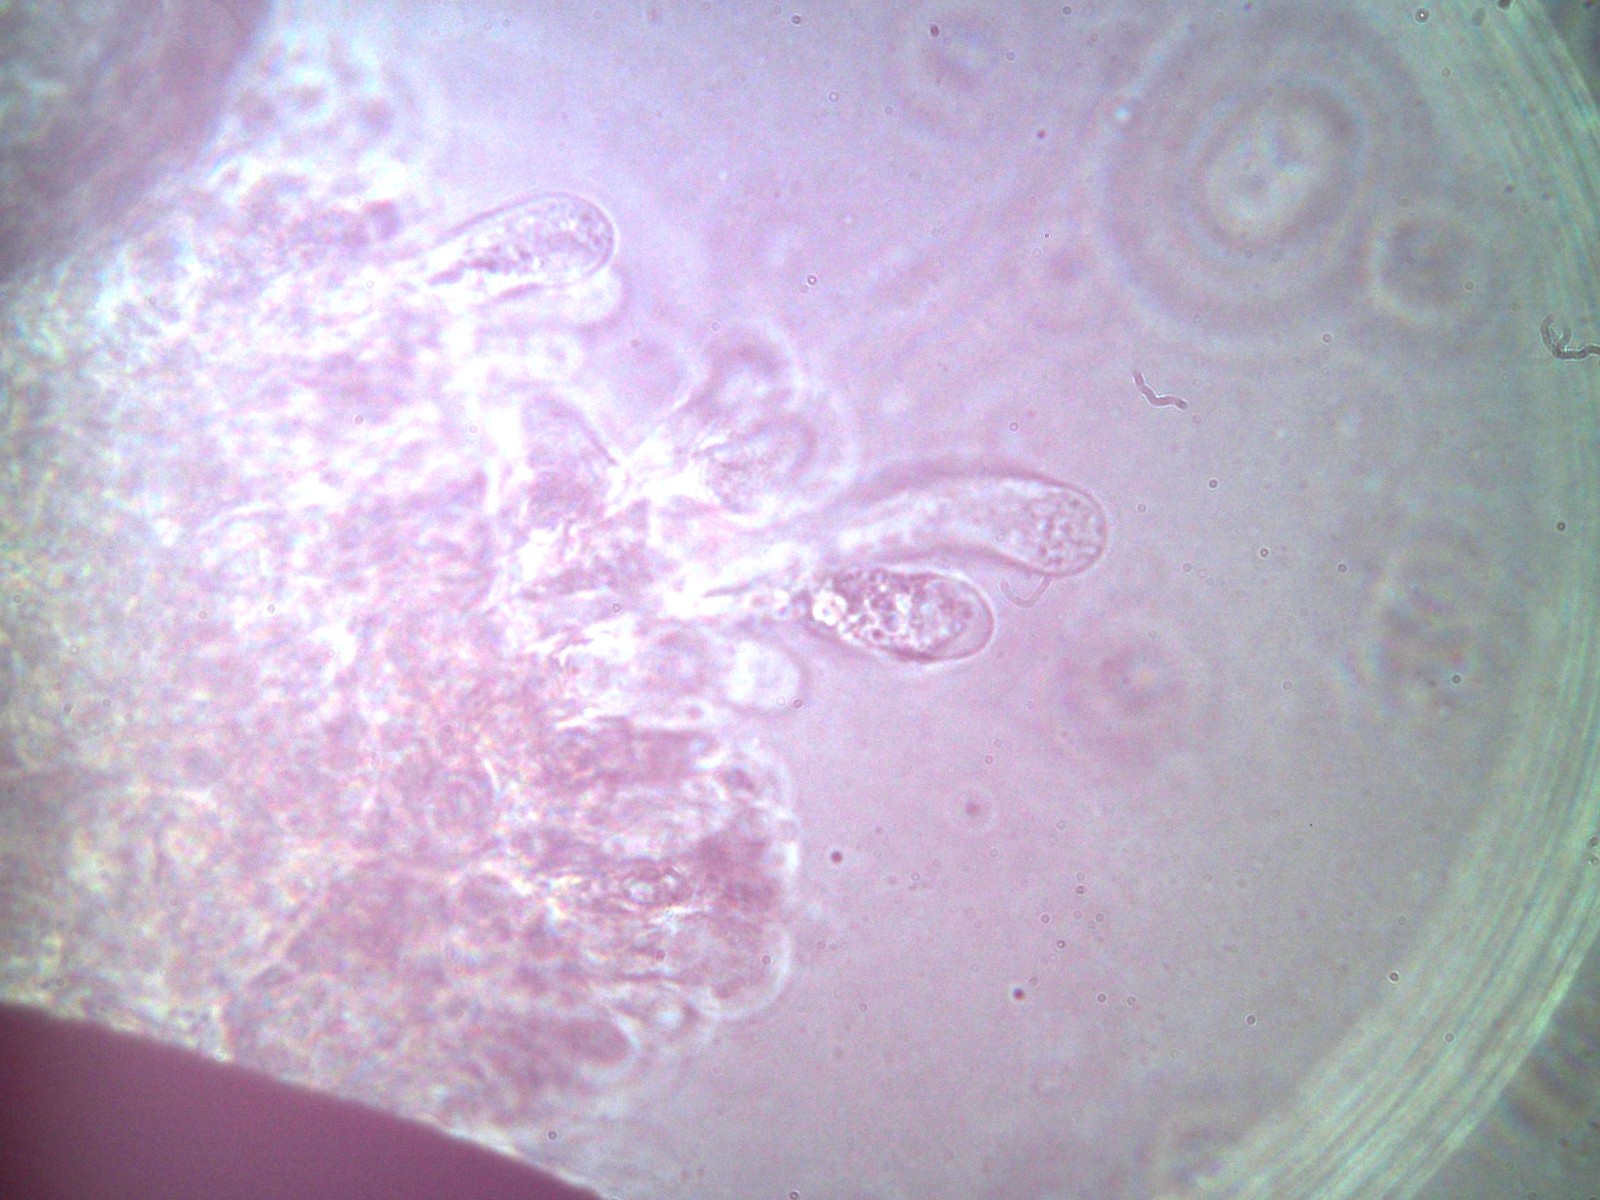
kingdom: Fungi
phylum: Basidiomycota
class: Agaricomycetes
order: Agaricales
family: Tubariaceae
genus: Flammulaster
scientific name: Flammulaster carpophilus
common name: blegrosa grynskælhat
